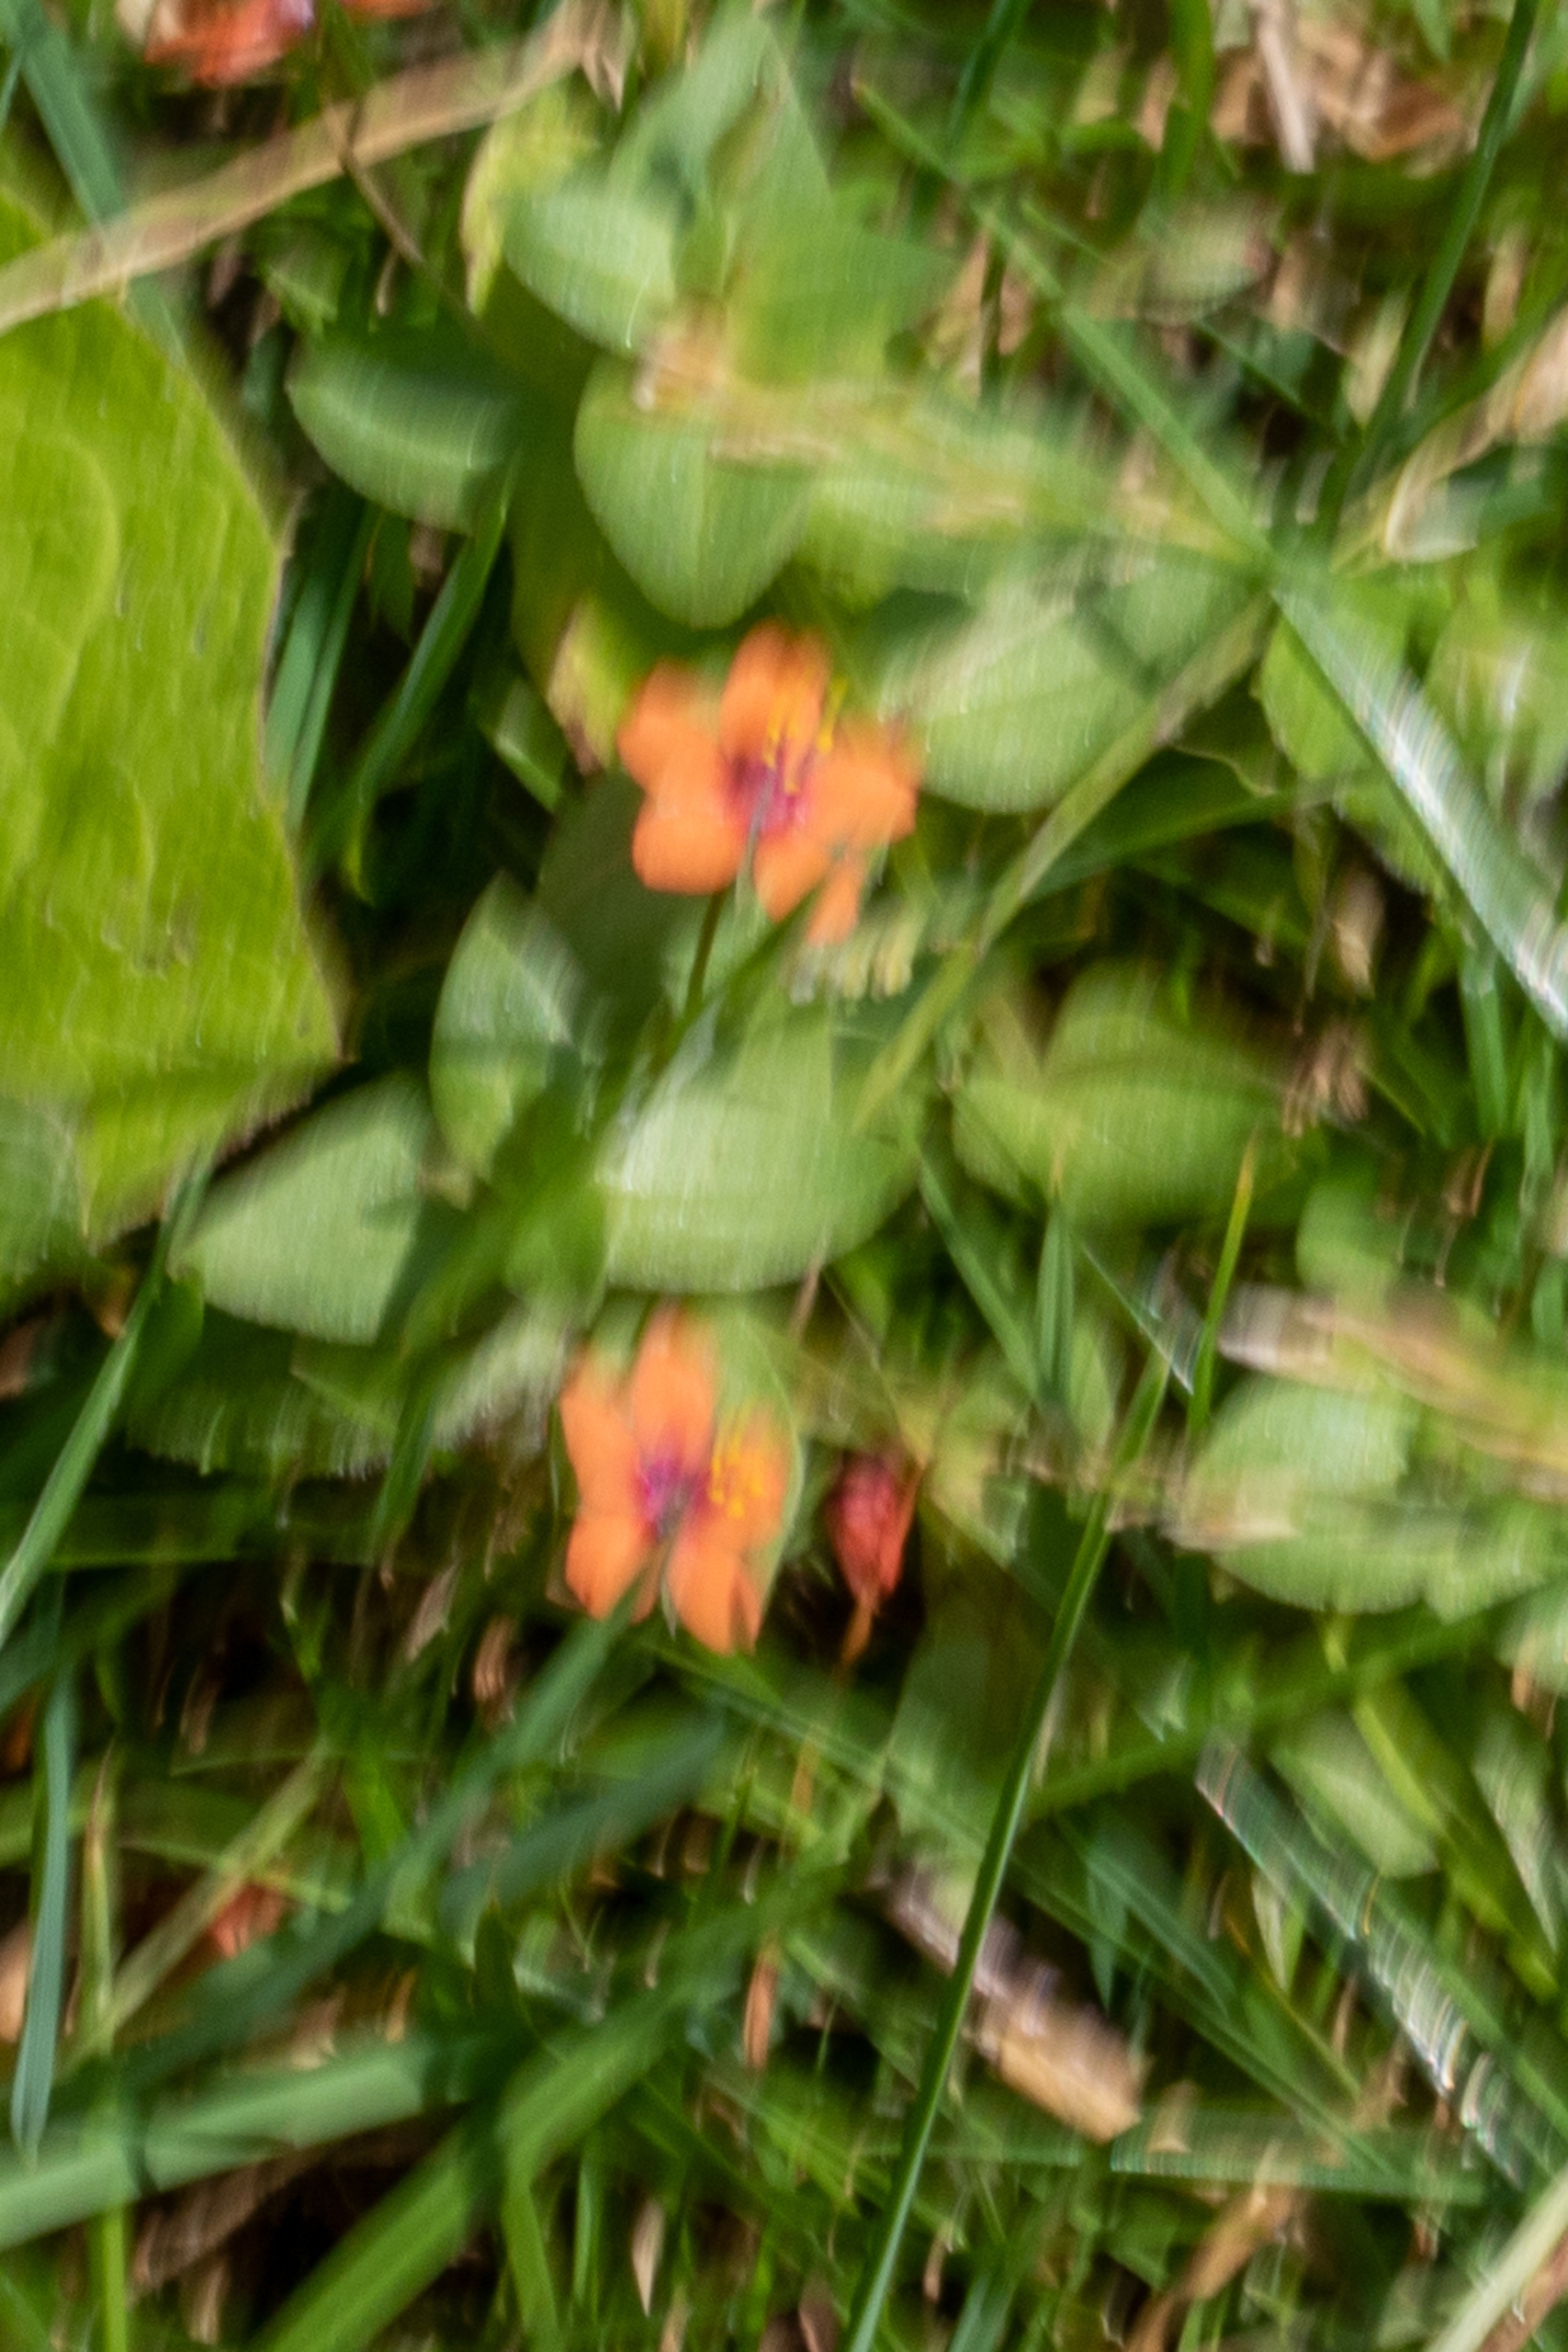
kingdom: Plantae
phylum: Tracheophyta
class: Magnoliopsida
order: Ericales
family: Primulaceae
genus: Lysimachia
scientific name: Lysimachia arvensis
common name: Rød arve
